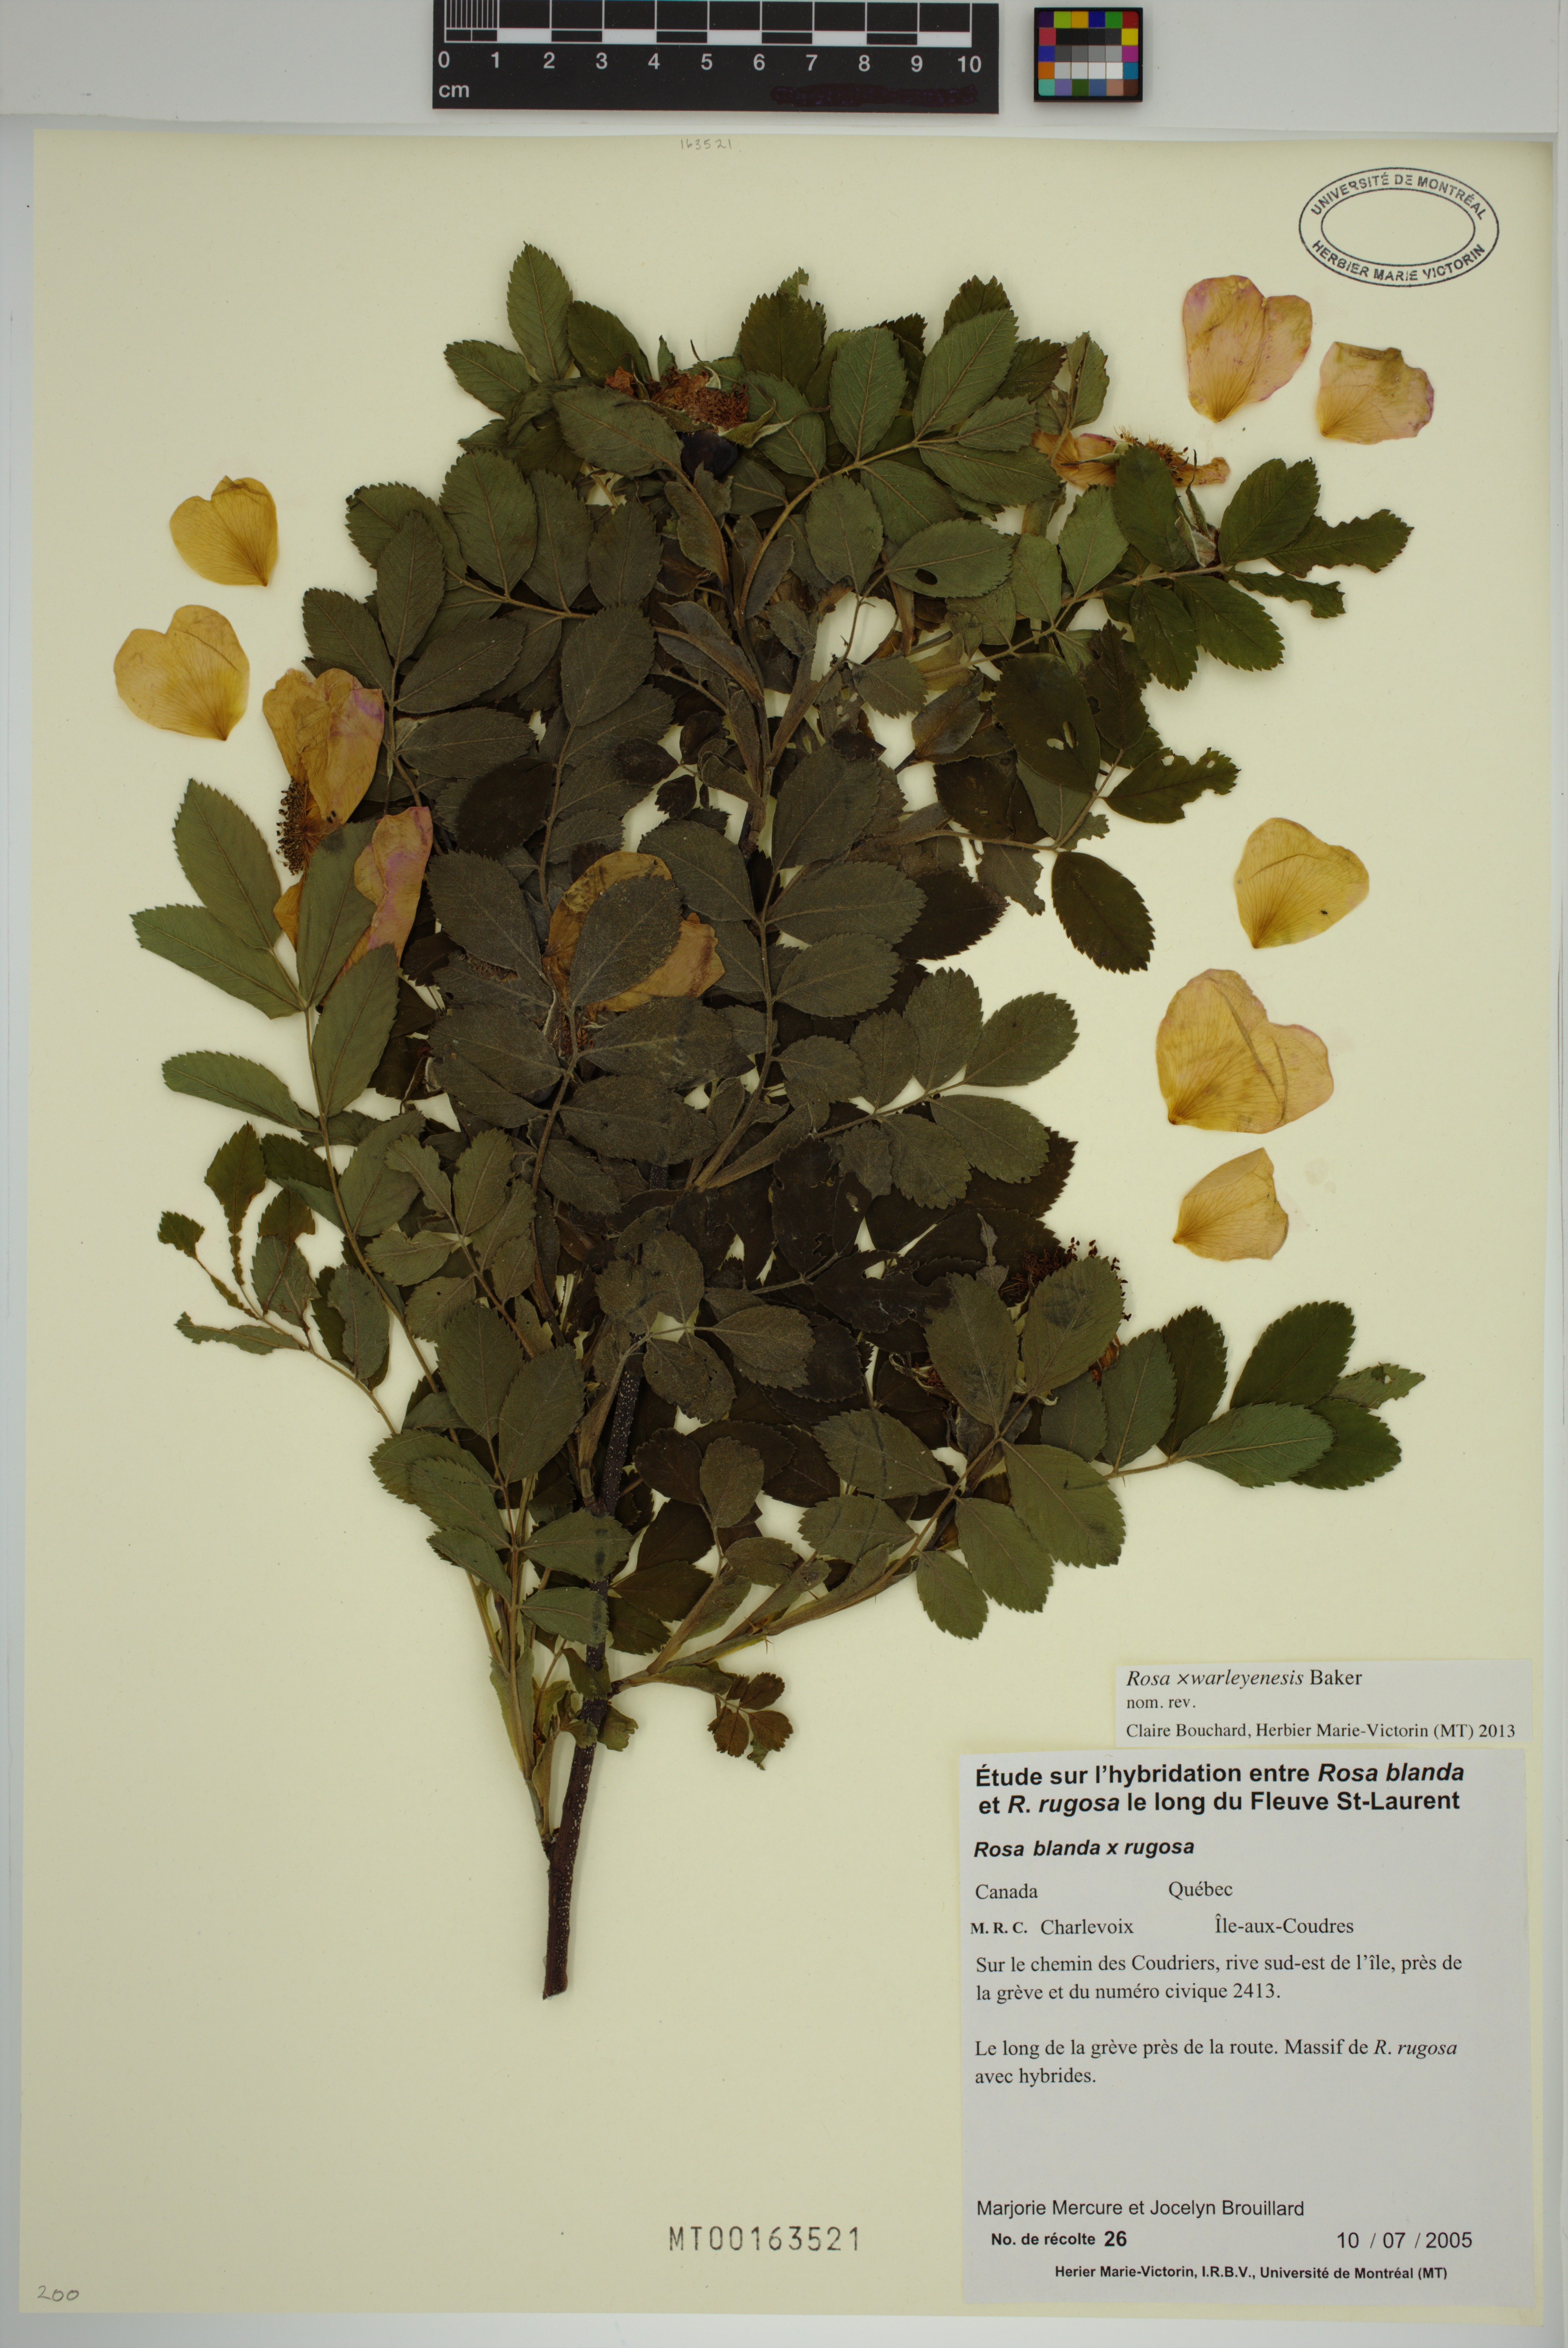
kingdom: Plantae
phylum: Tracheophyta
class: Magnoliopsida
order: Rosales
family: Rosaceae
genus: Rosa
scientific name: Rosa warleyensis
